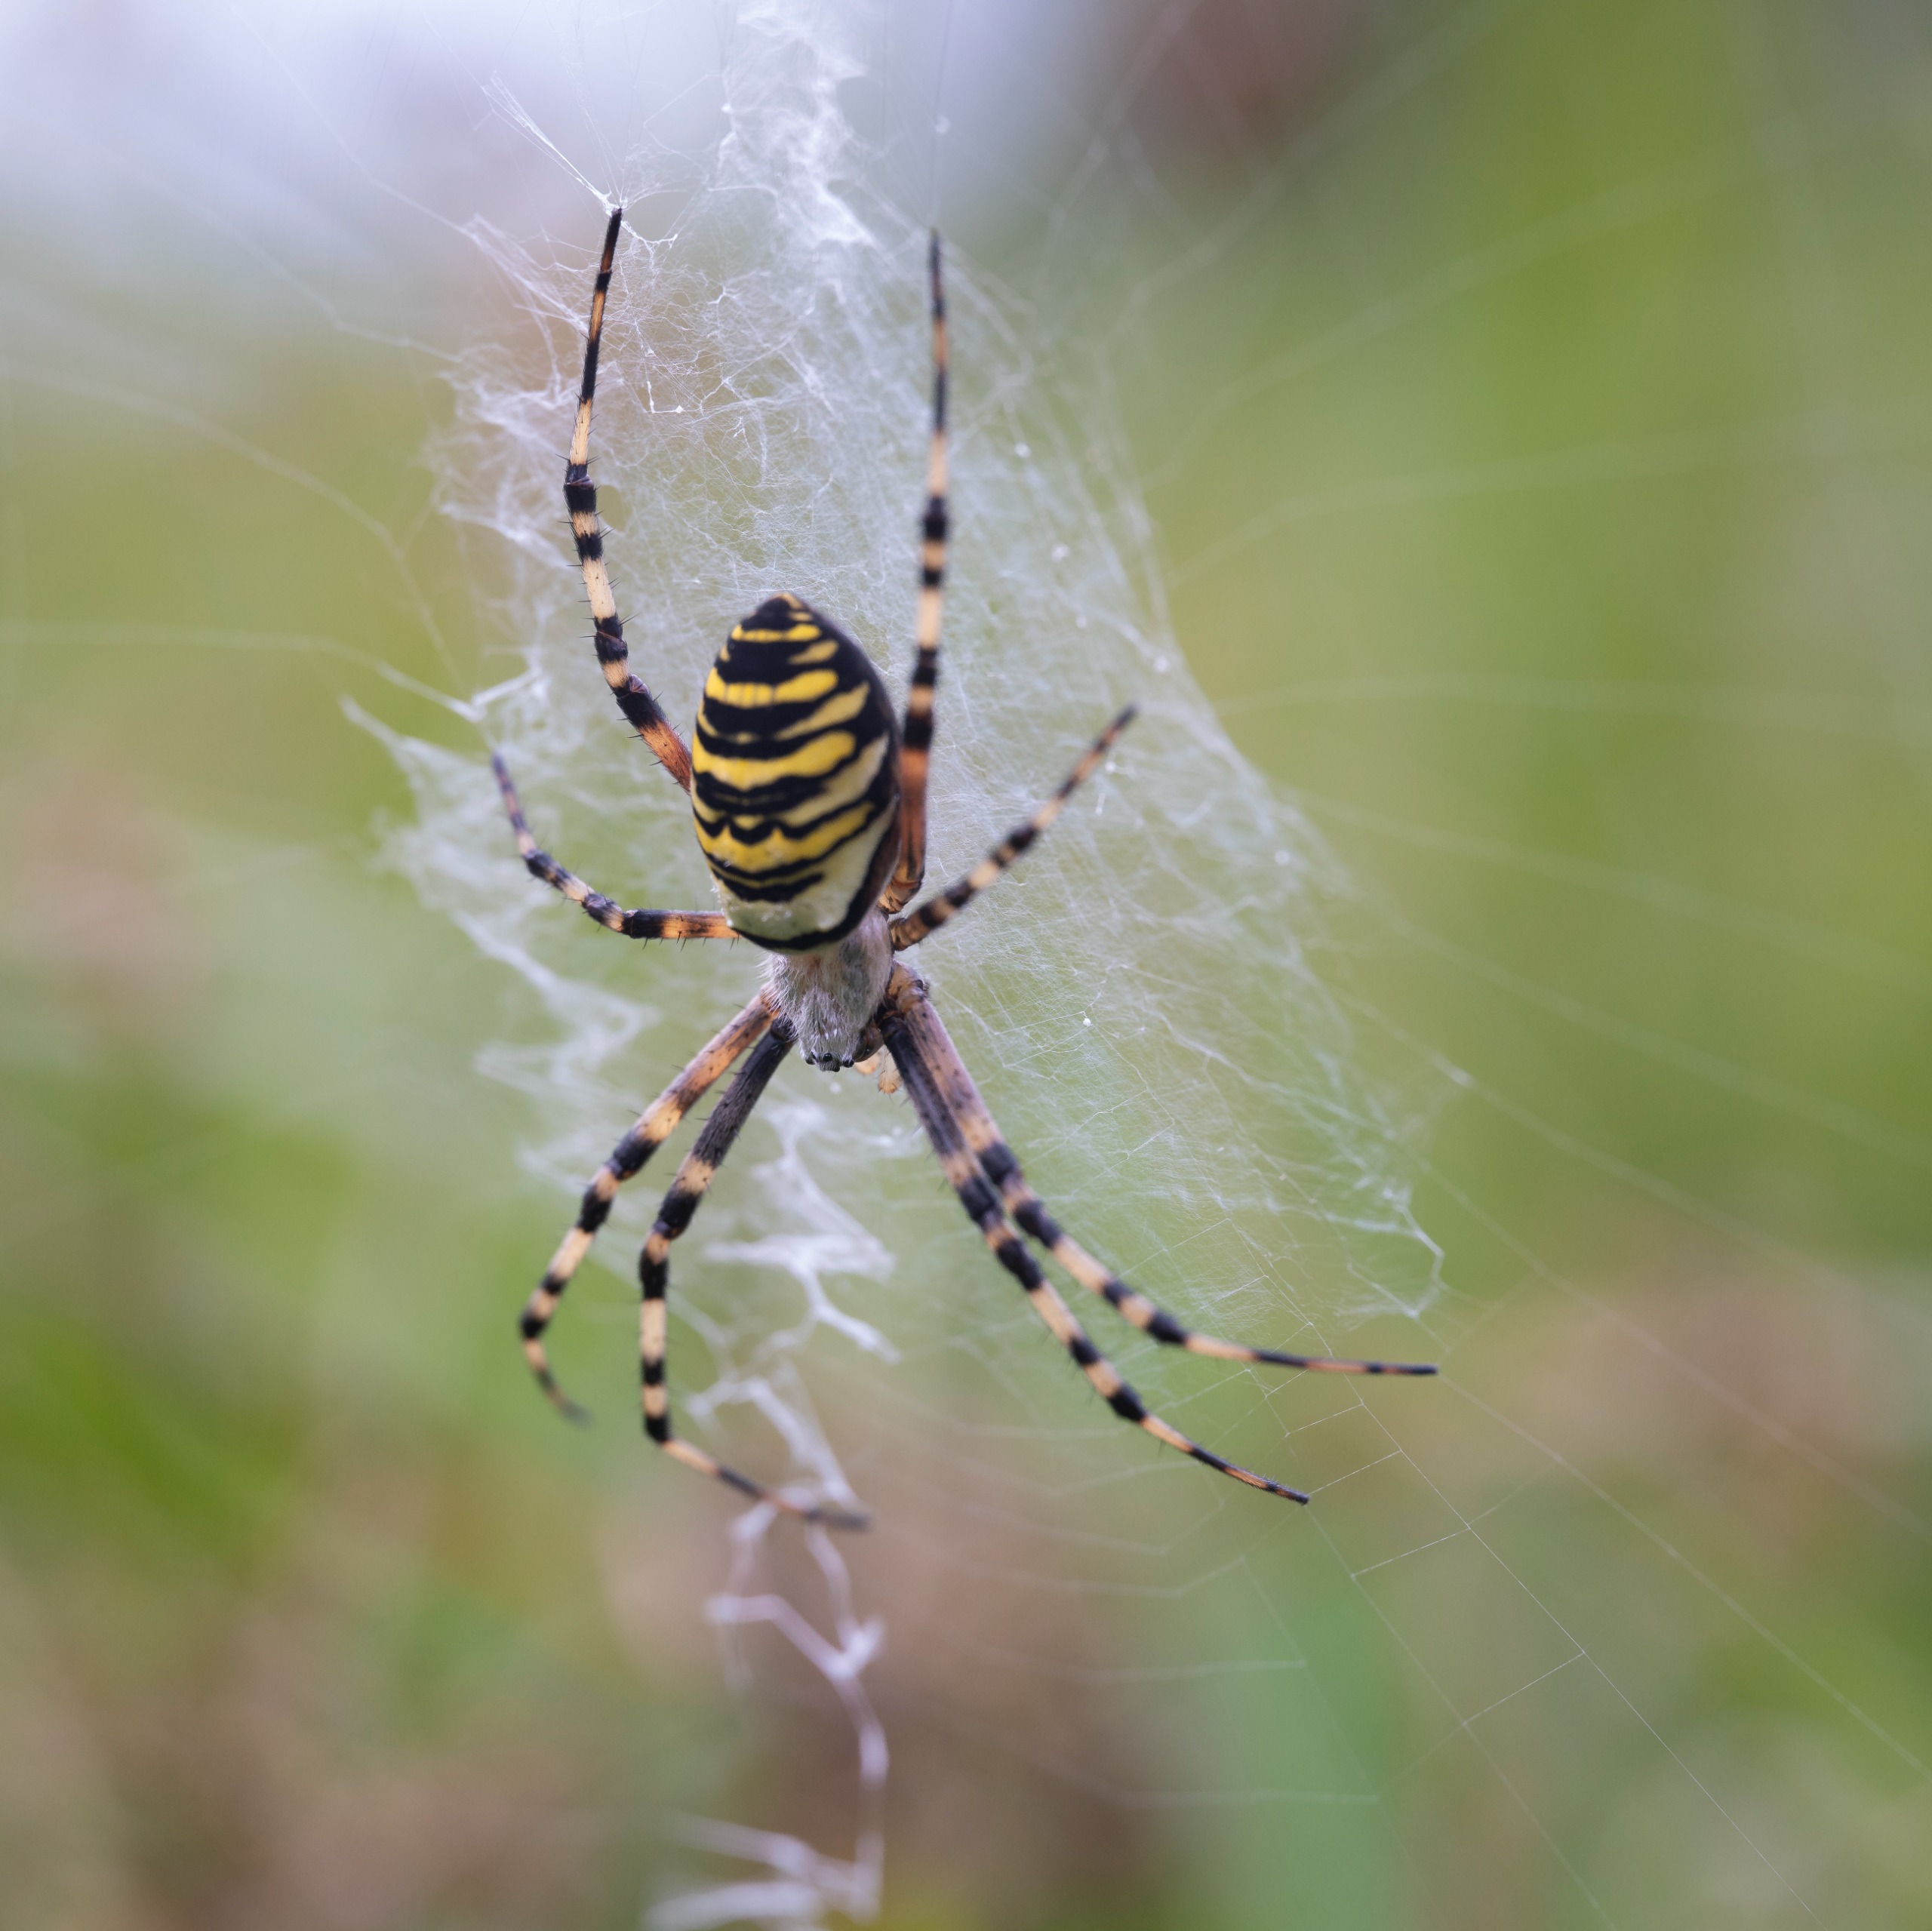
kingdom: Animalia
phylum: Arthropoda
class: Arachnida
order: Araneae
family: Araneidae
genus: Argiope
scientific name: Argiope bruennichi
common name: Hvepseedderkop
